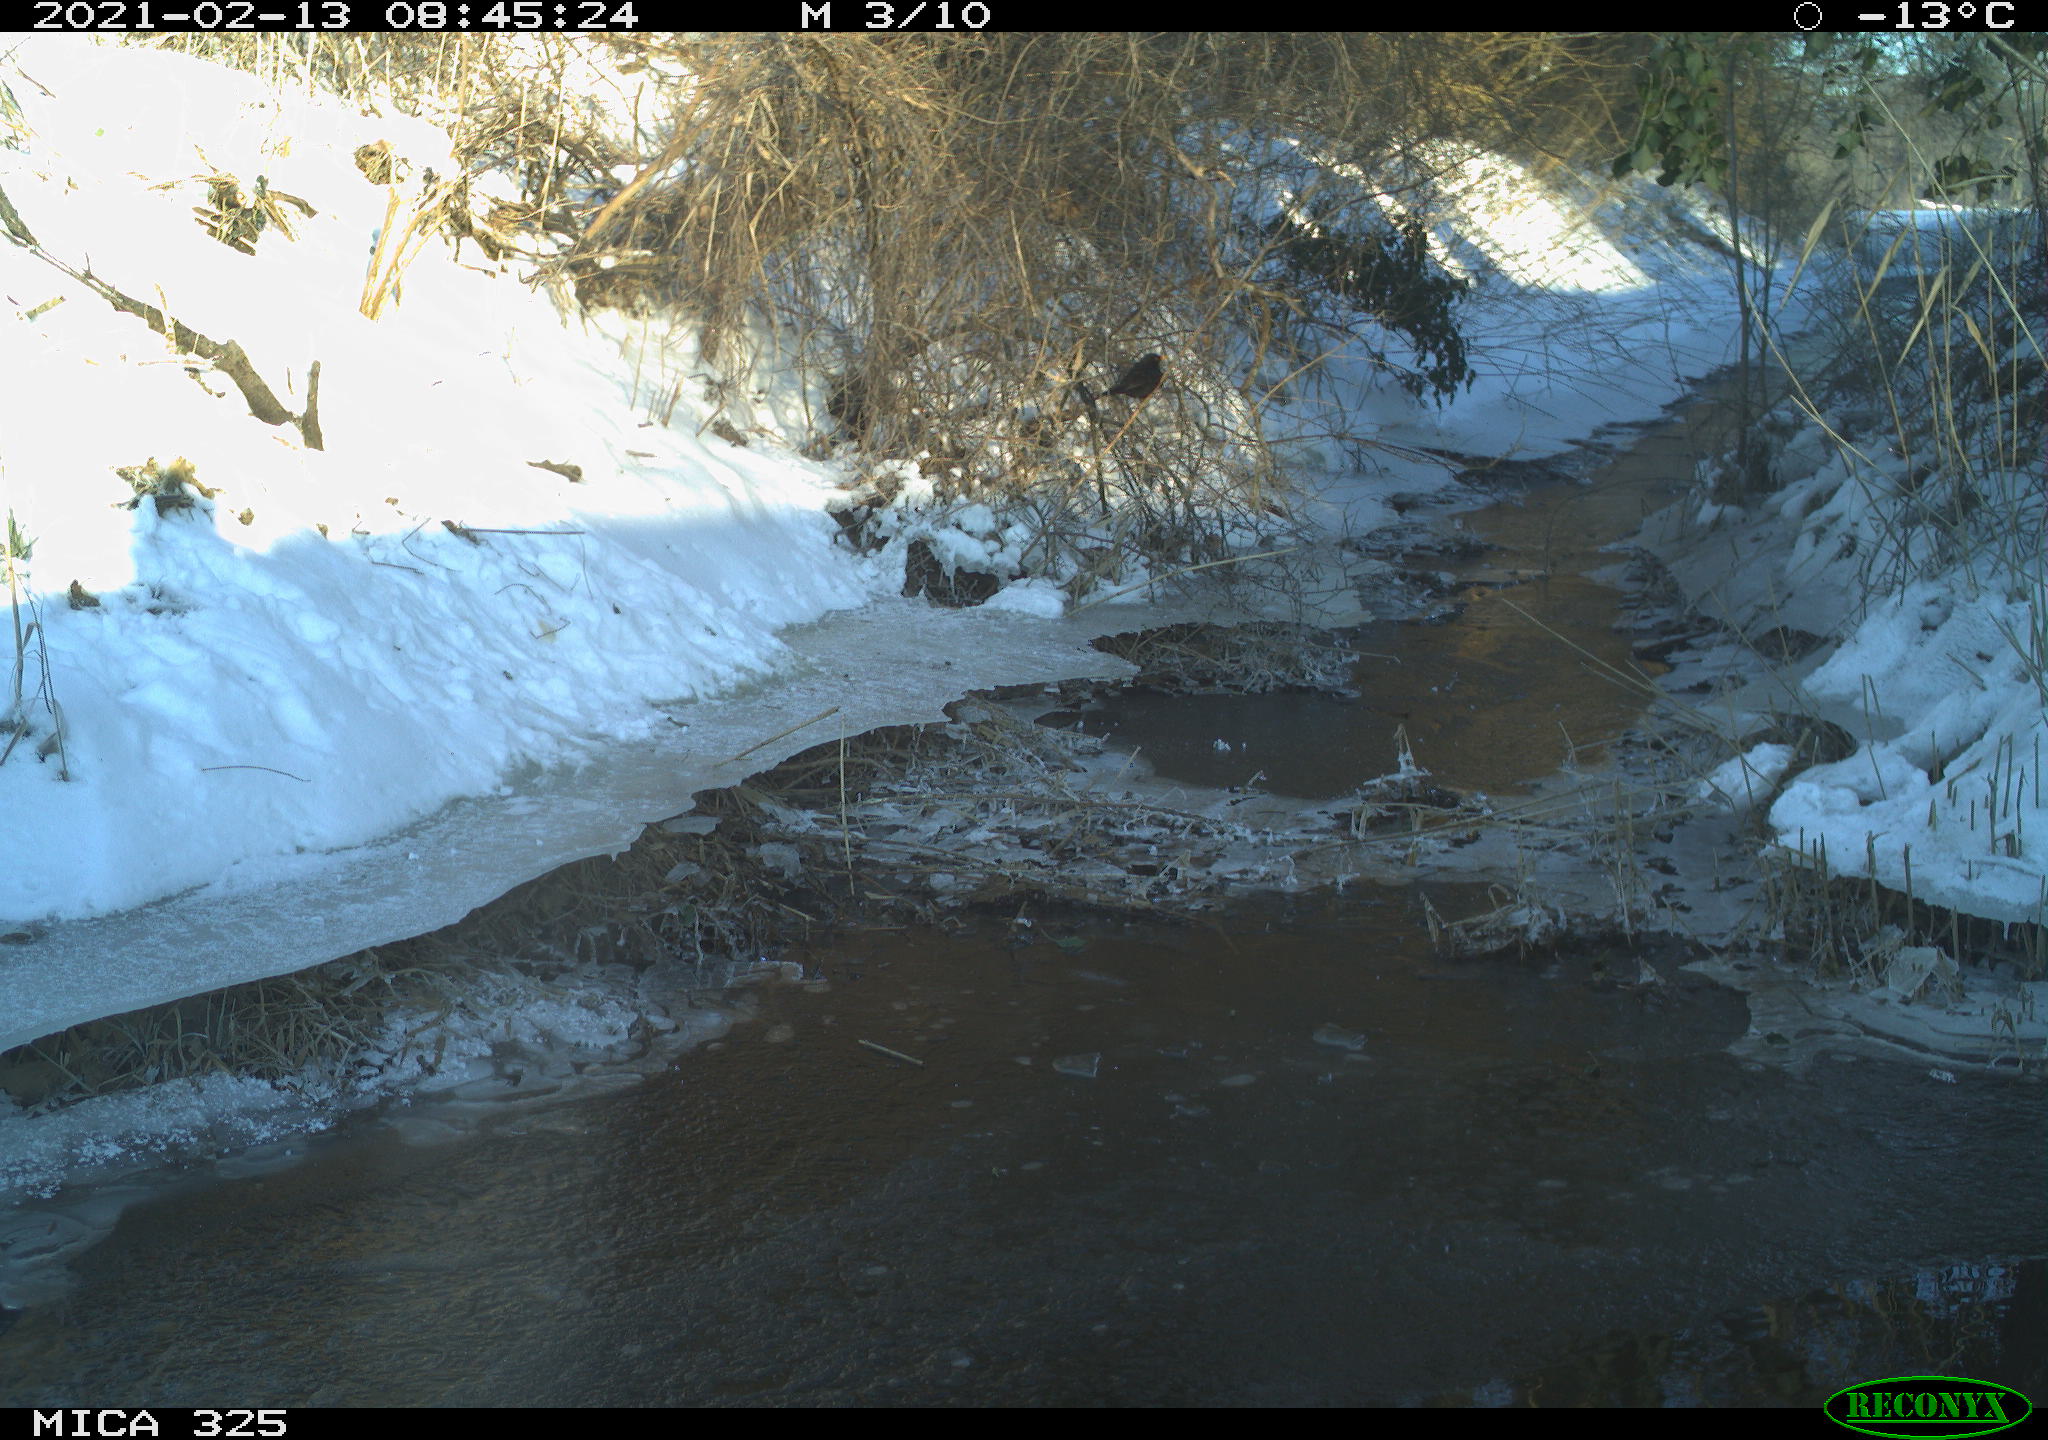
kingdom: Animalia
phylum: Chordata
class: Aves
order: Passeriformes
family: Turdidae
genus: Turdus
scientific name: Turdus merula
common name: Common blackbird
